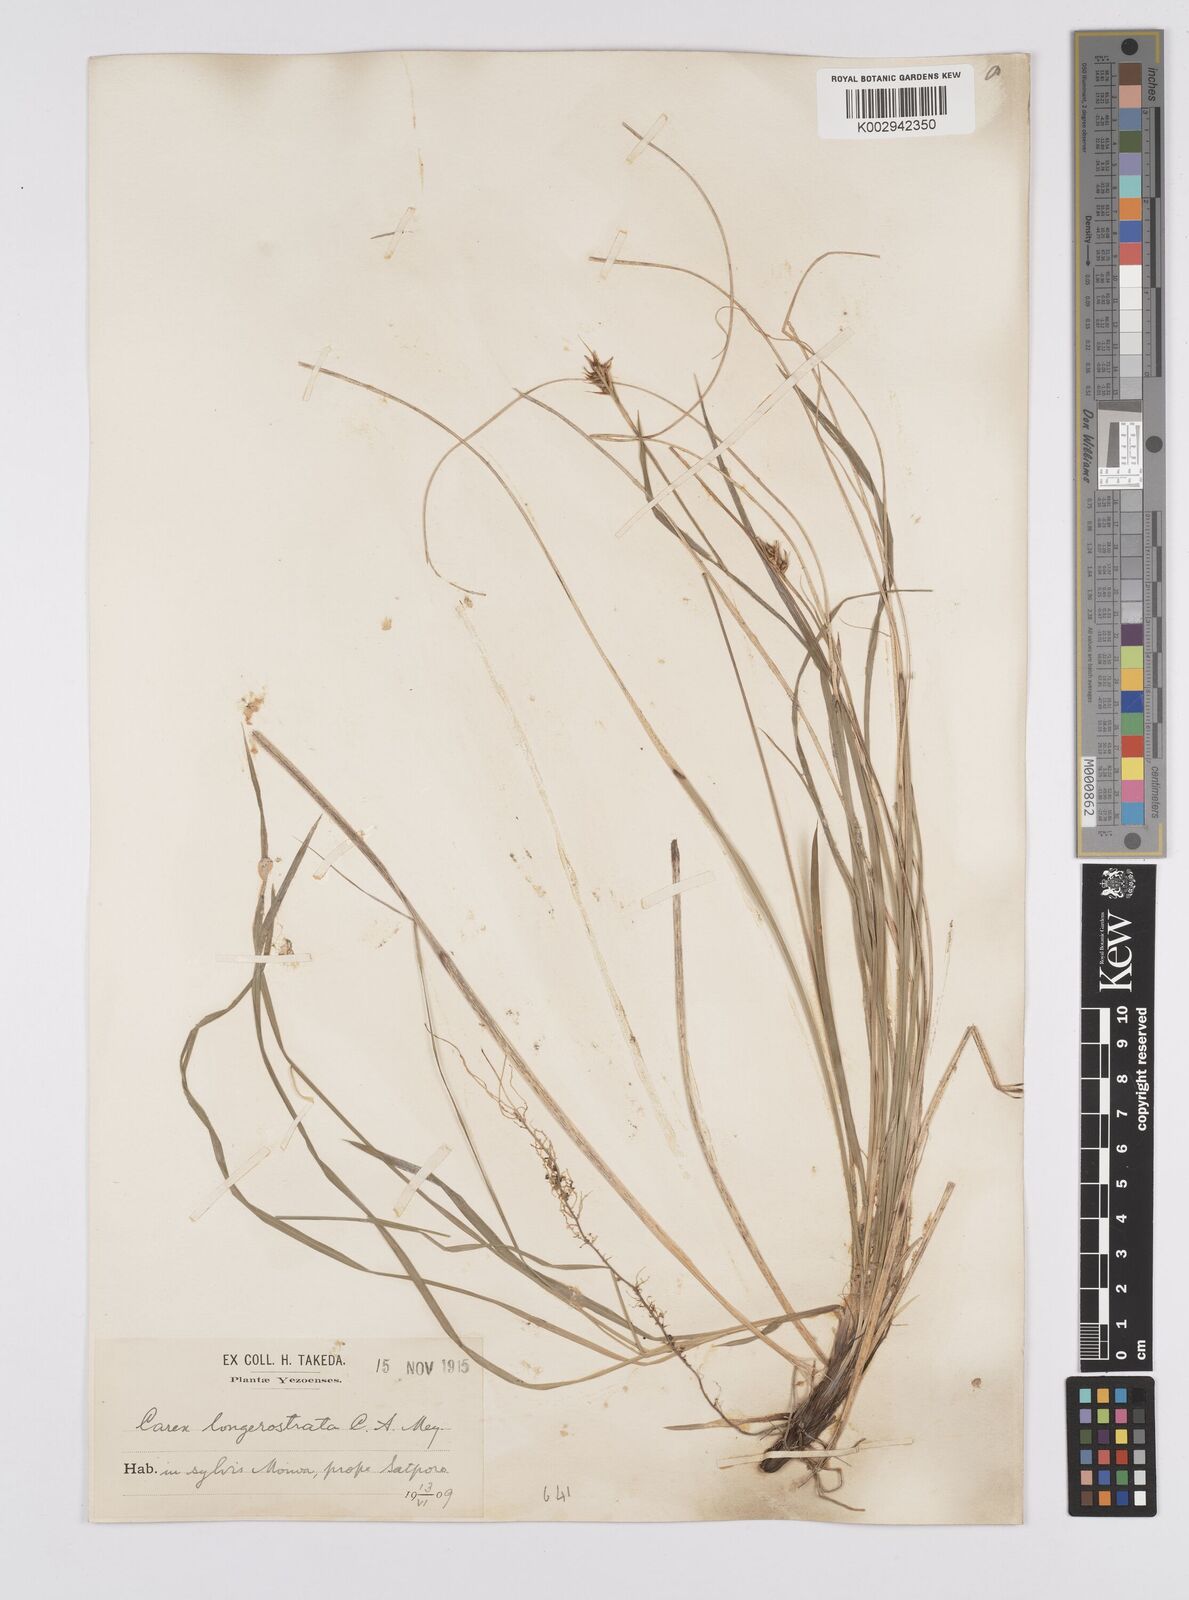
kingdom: Plantae
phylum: Tracheophyta
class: Liliopsida
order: Poales
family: Cyperaceae
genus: Carex
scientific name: Carex michelii
